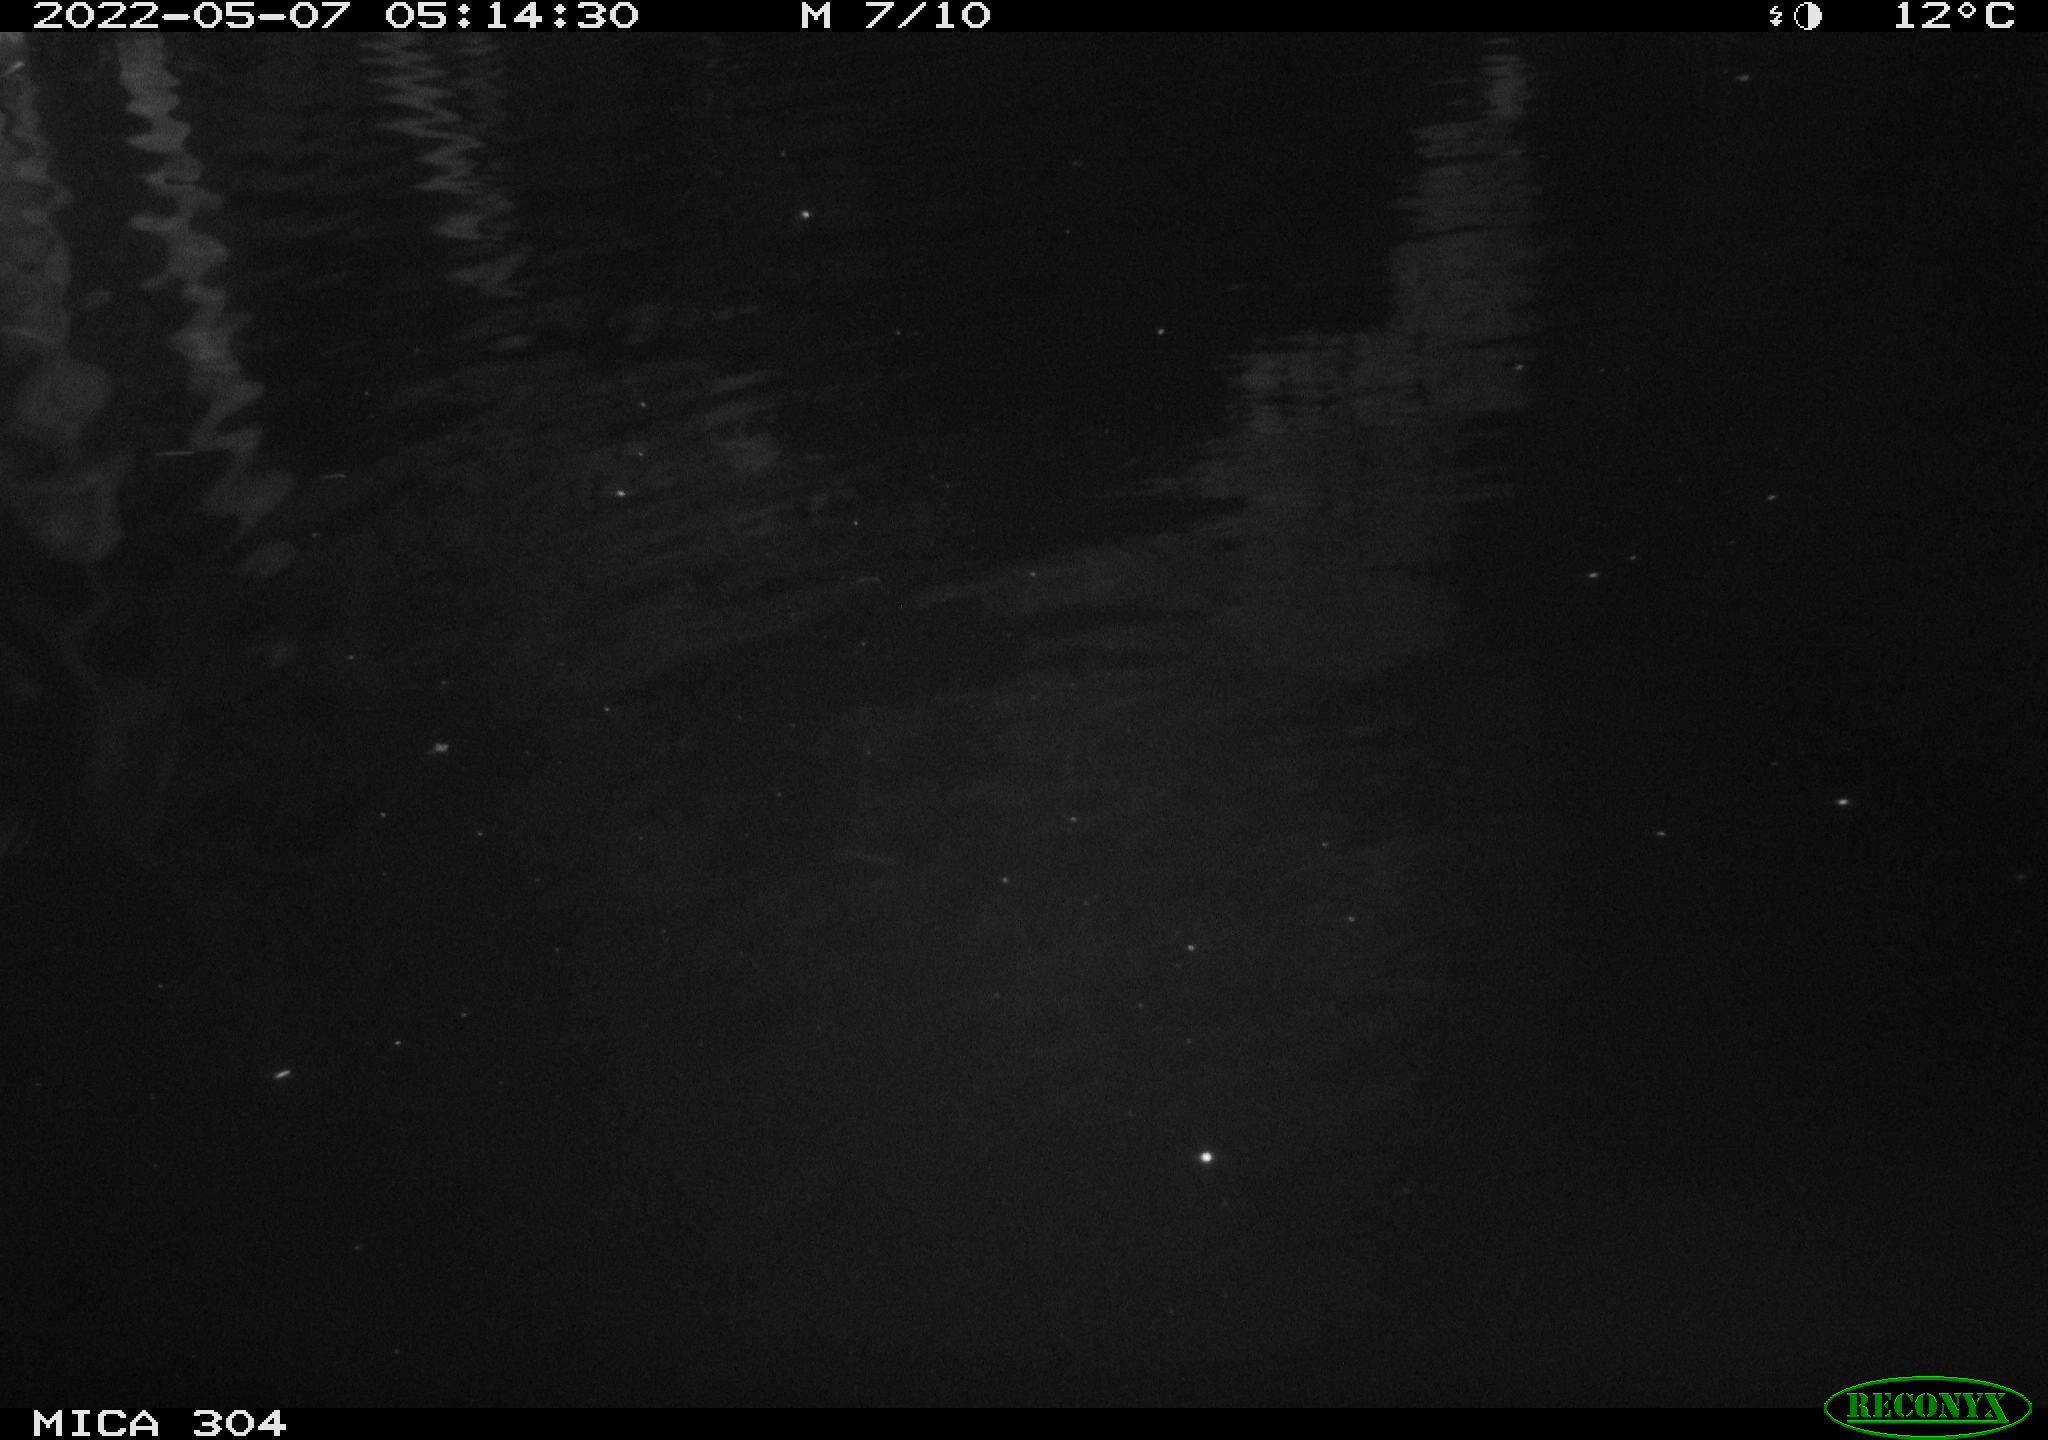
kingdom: Animalia
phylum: Chordata
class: Mammalia
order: Rodentia
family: Cricetidae
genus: Ondatra
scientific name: Ondatra zibethicus
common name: Muskrat
